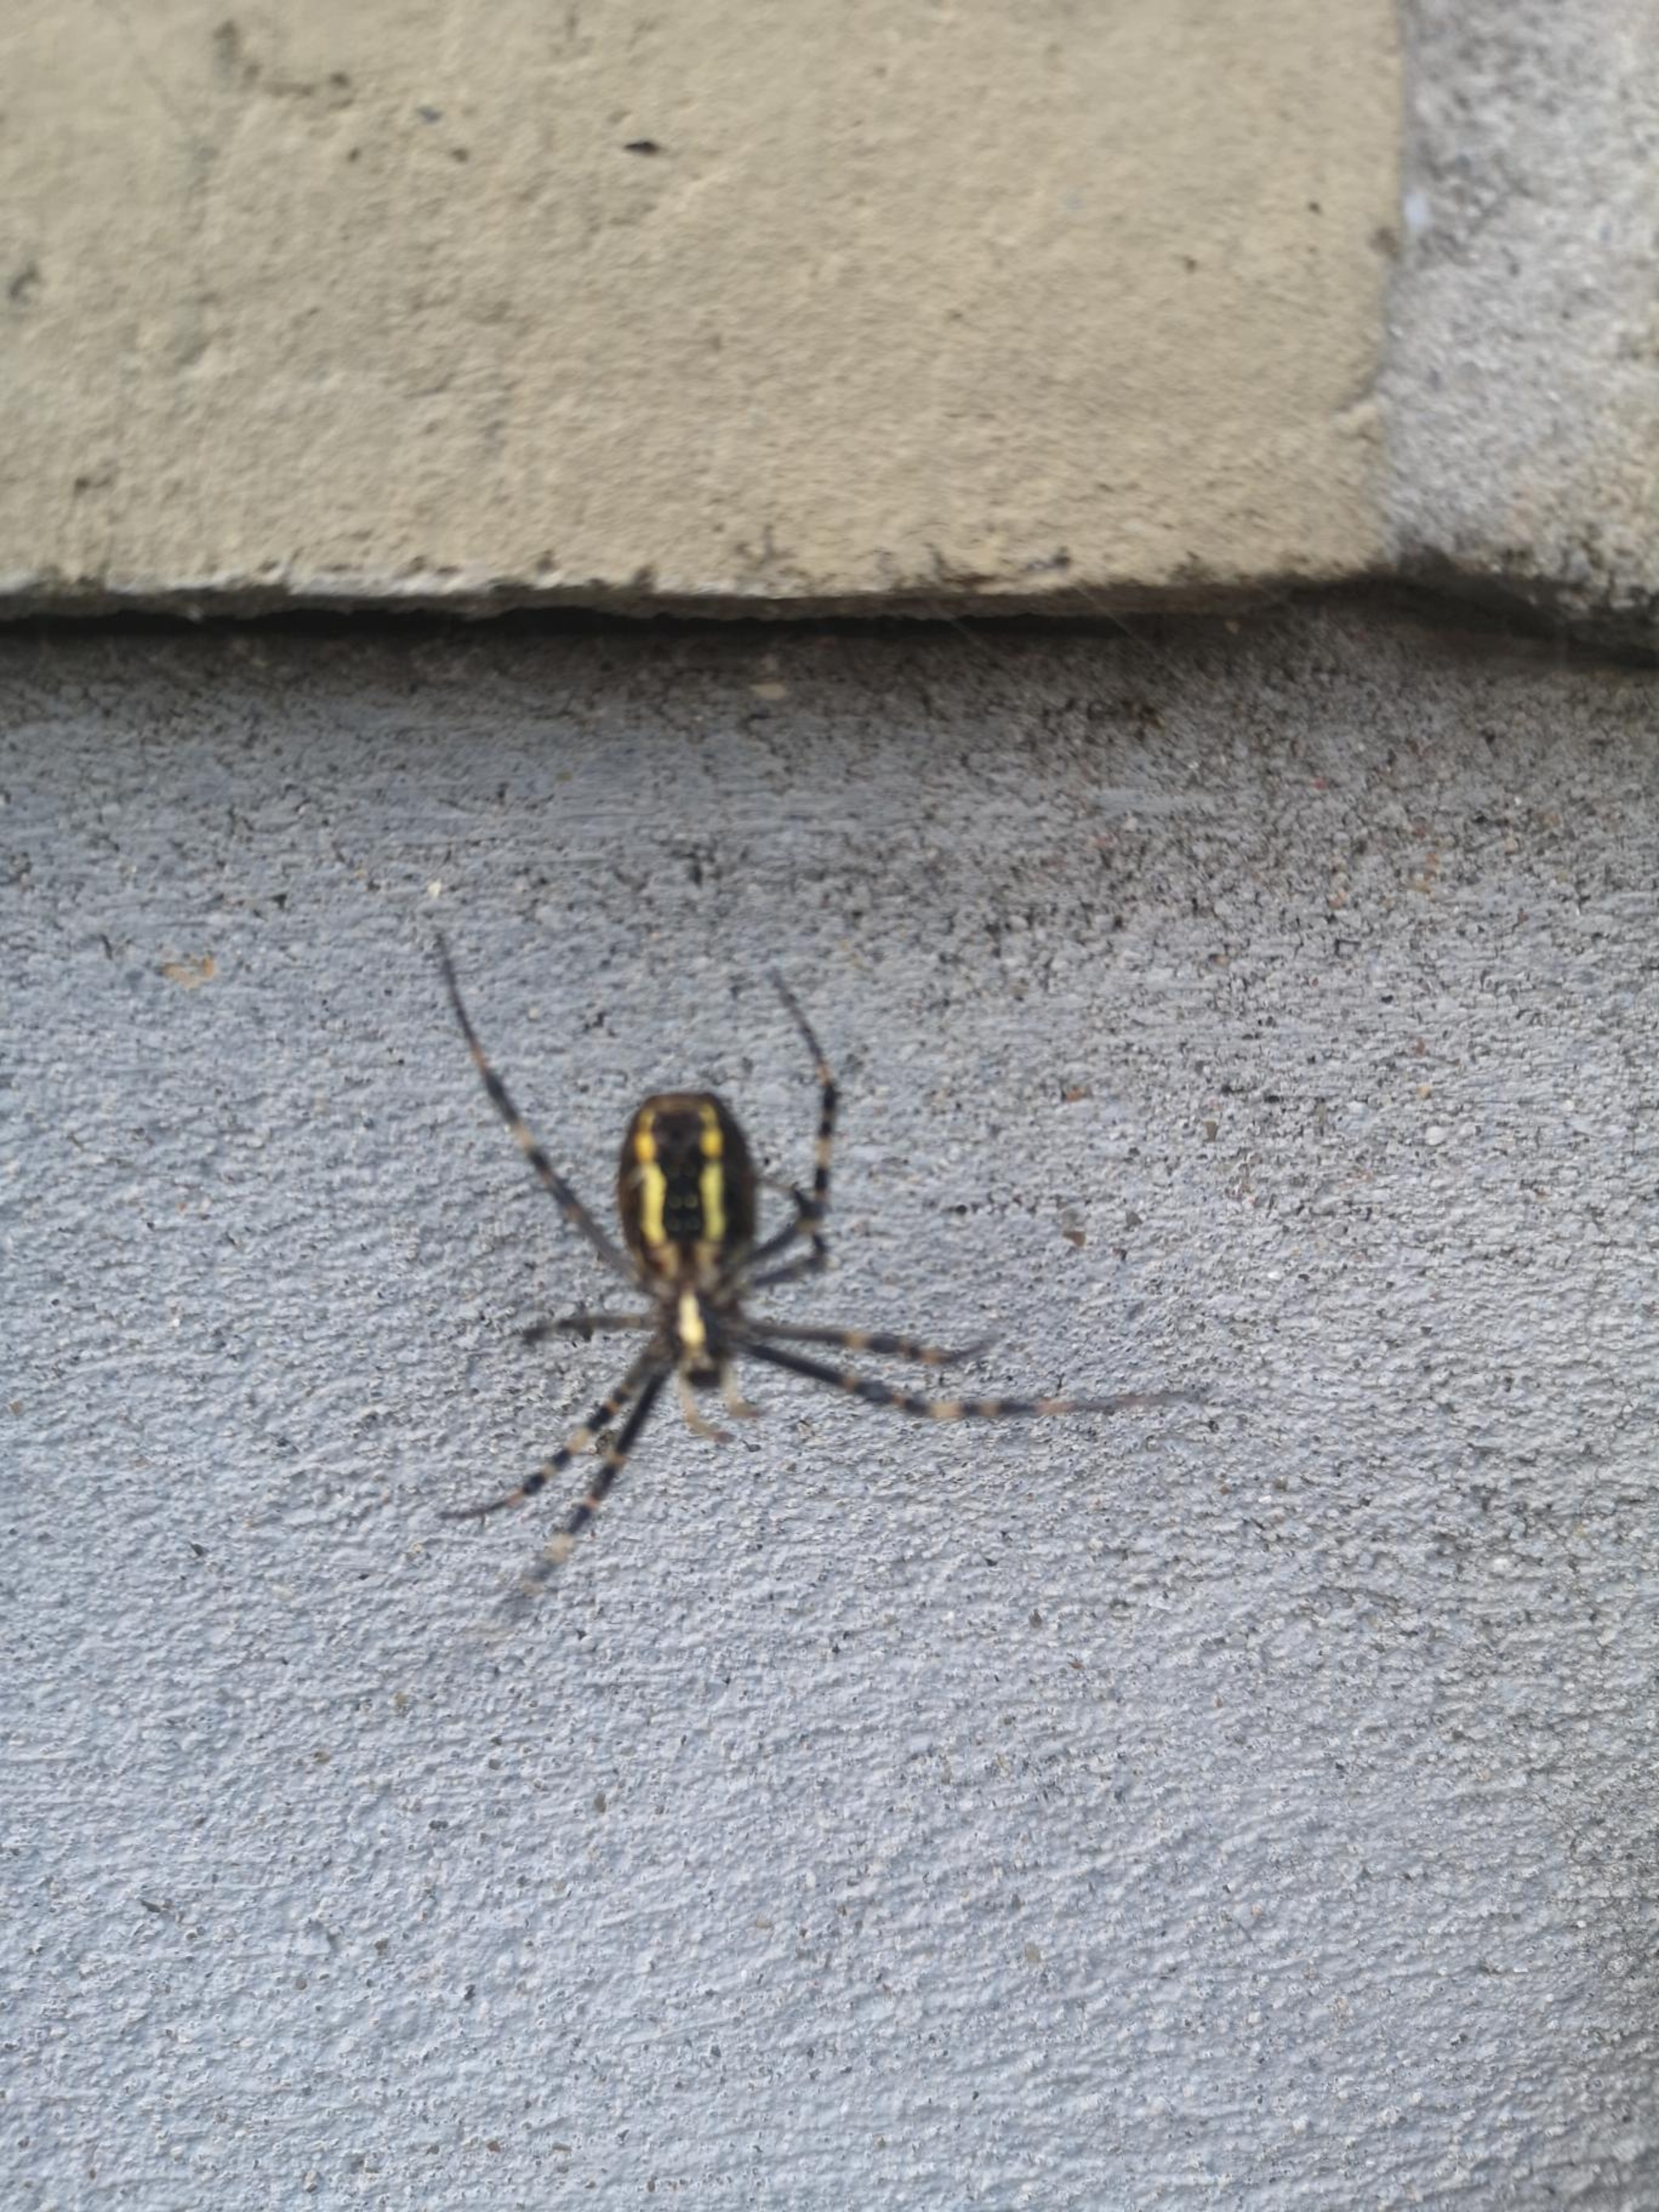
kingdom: Animalia
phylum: Arthropoda
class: Arachnida
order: Araneae
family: Araneidae
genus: Argiope
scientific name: Argiope bruennichi
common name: Hvepseedderkop
